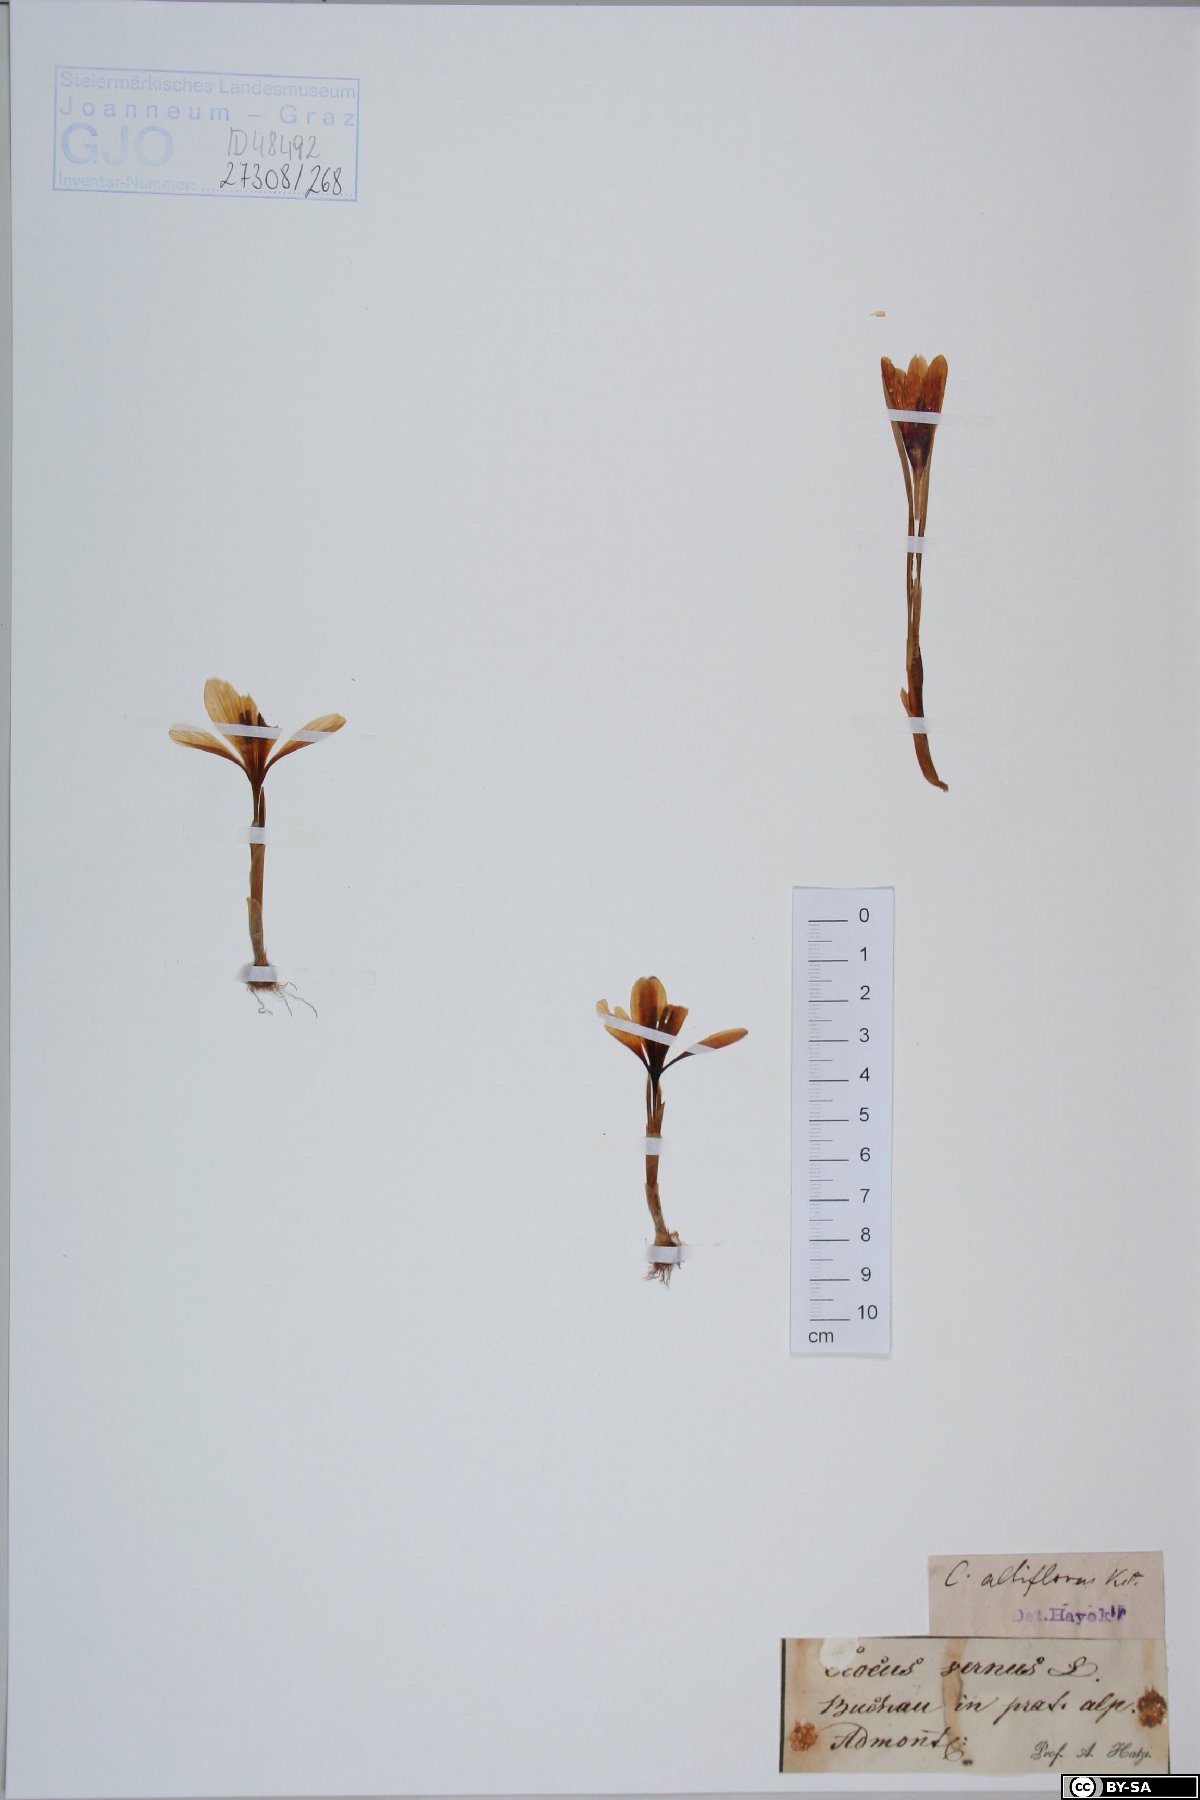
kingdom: Plantae
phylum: Tracheophyta
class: Liliopsida
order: Asparagales
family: Iridaceae
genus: Crocus
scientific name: Crocus vernus
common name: Spring crocus
